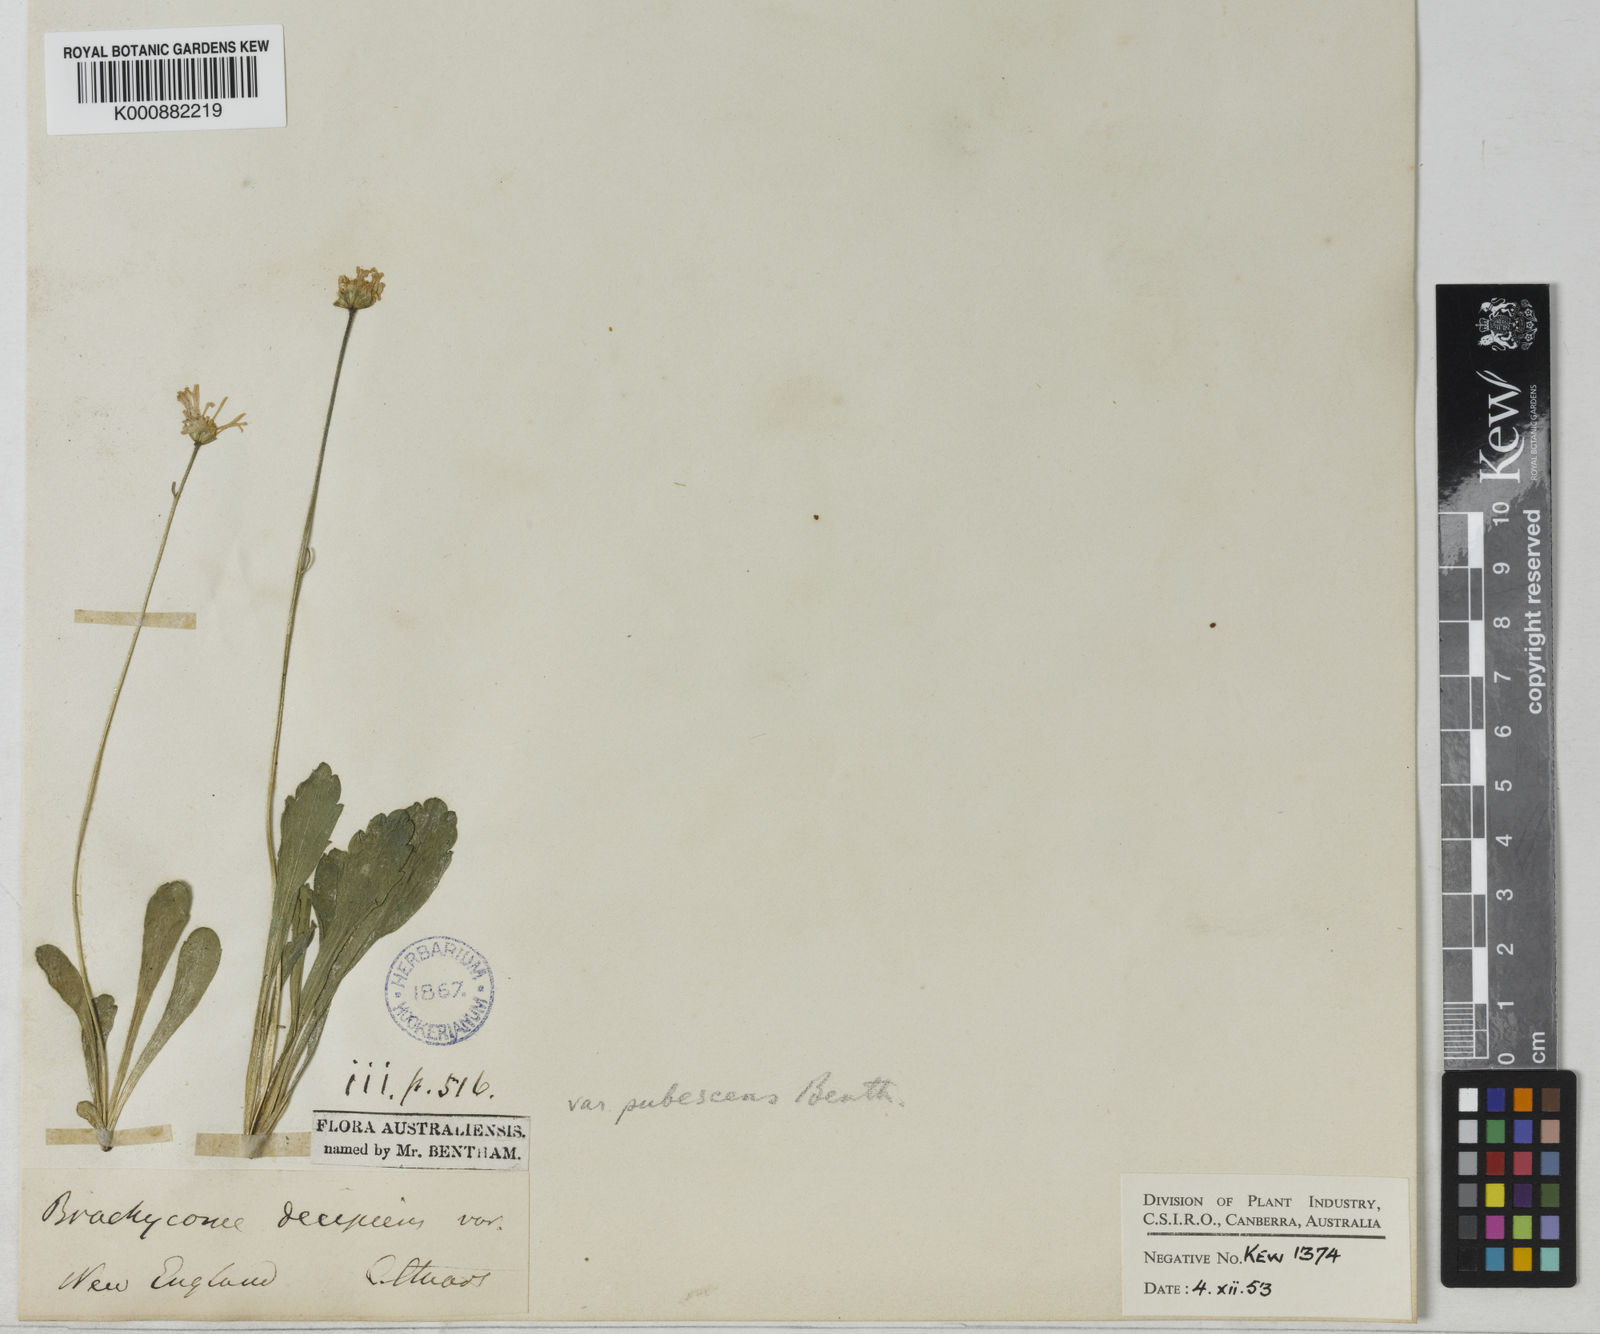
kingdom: Plantae
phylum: Tracheophyta
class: Magnoliopsida
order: Asterales
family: Asteraceae
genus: Brachyscome
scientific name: Brachyscome tenuiscapa
